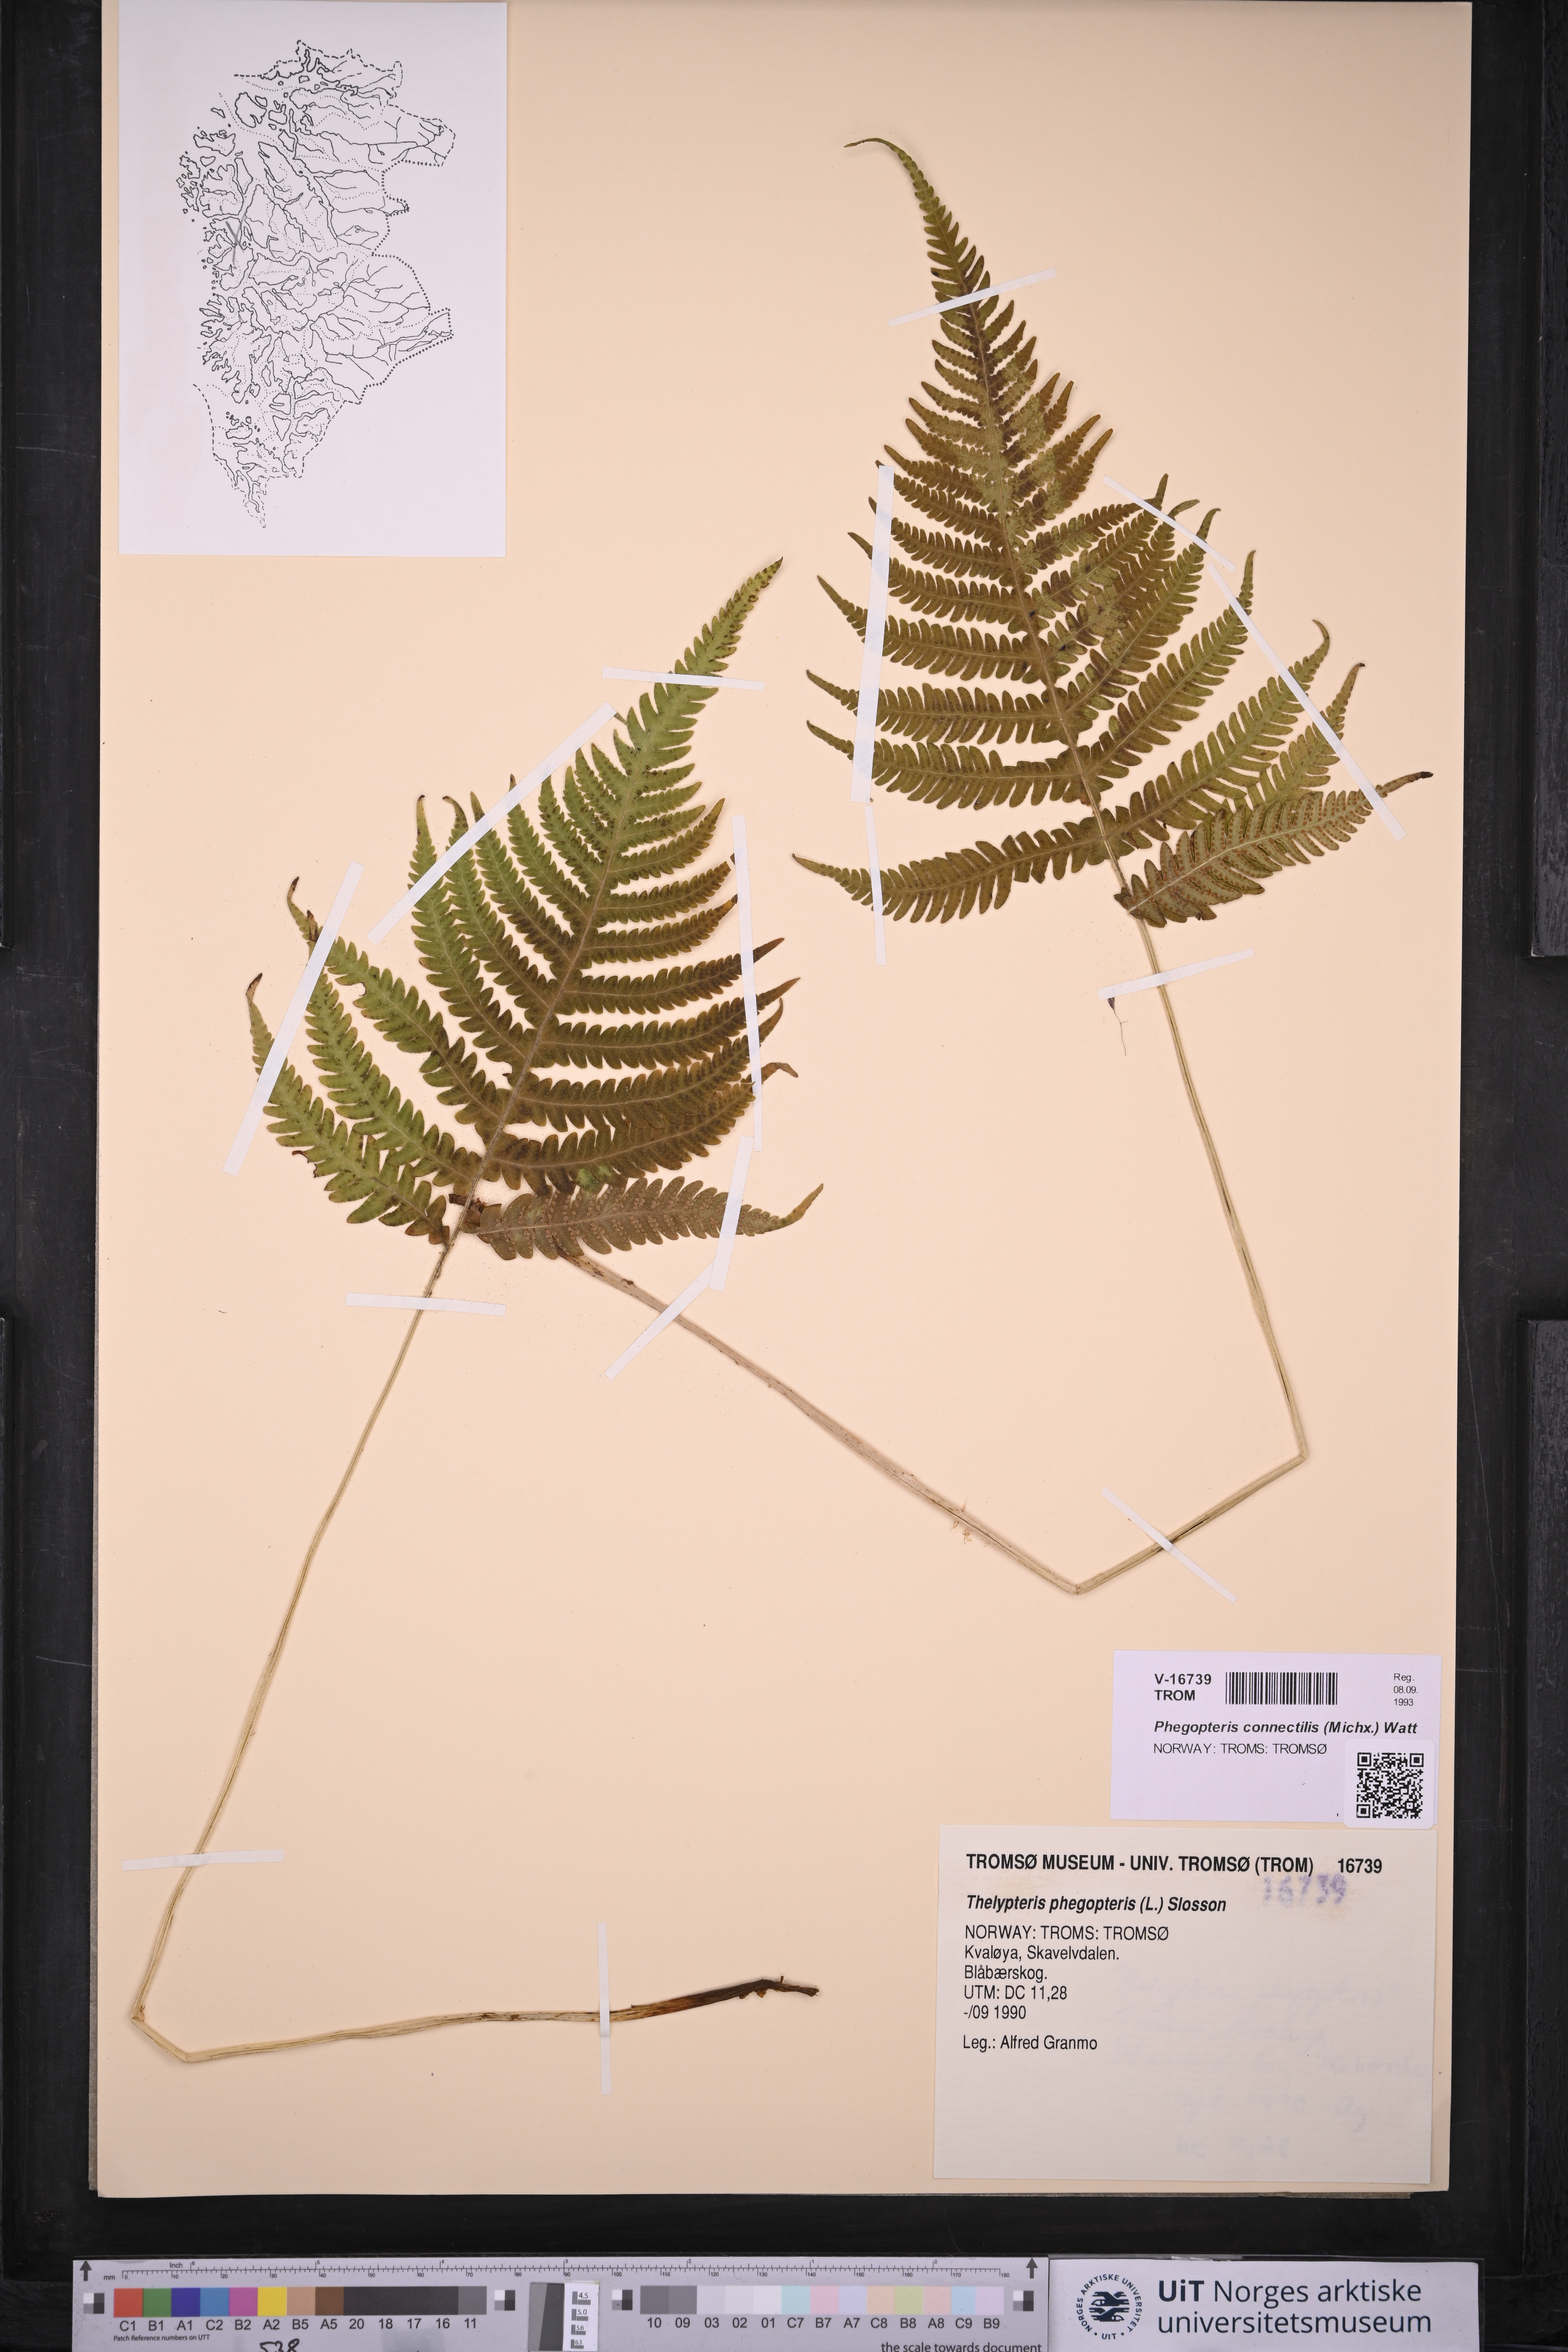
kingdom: Plantae
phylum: Tracheophyta
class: Polypodiopsida
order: Polypodiales
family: Thelypteridaceae
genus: Phegopteris
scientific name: Phegopteris connectilis
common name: Beech fern
